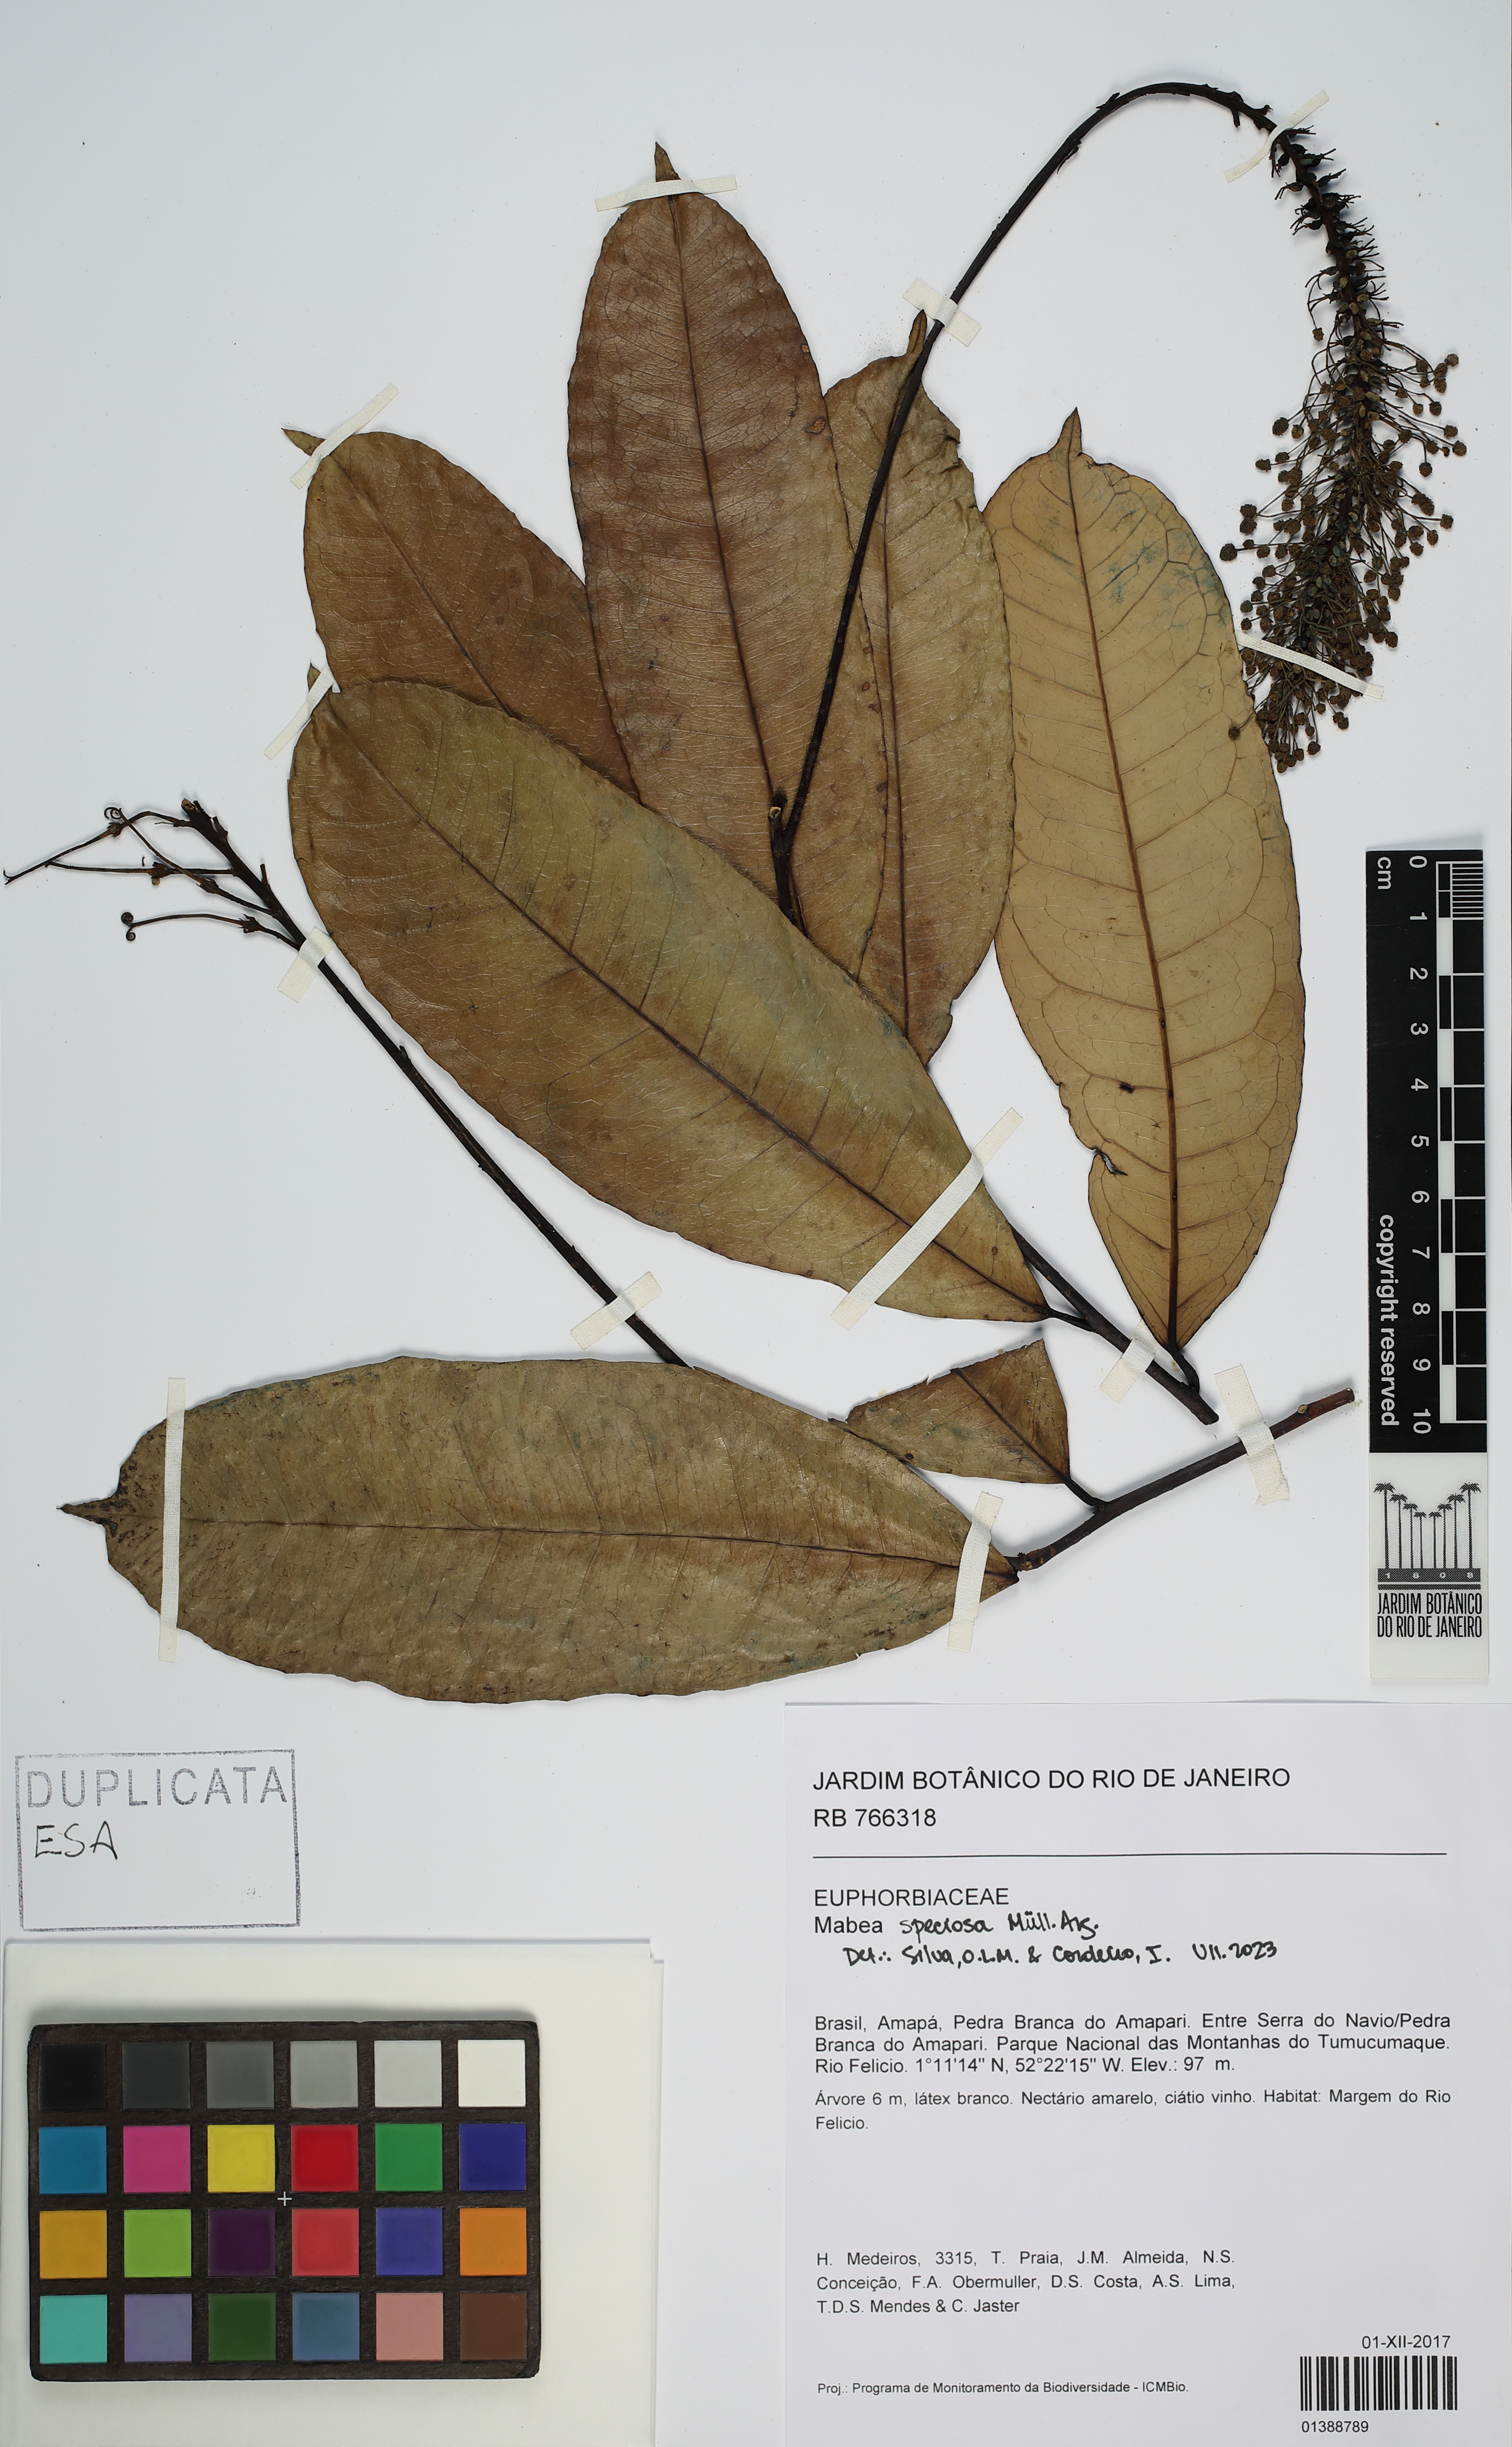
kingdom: Plantae
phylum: Tracheophyta
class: Magnoliopsida
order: Malpighiales
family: Euphorbiaceae
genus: Mabea
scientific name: Mabea speciosa
